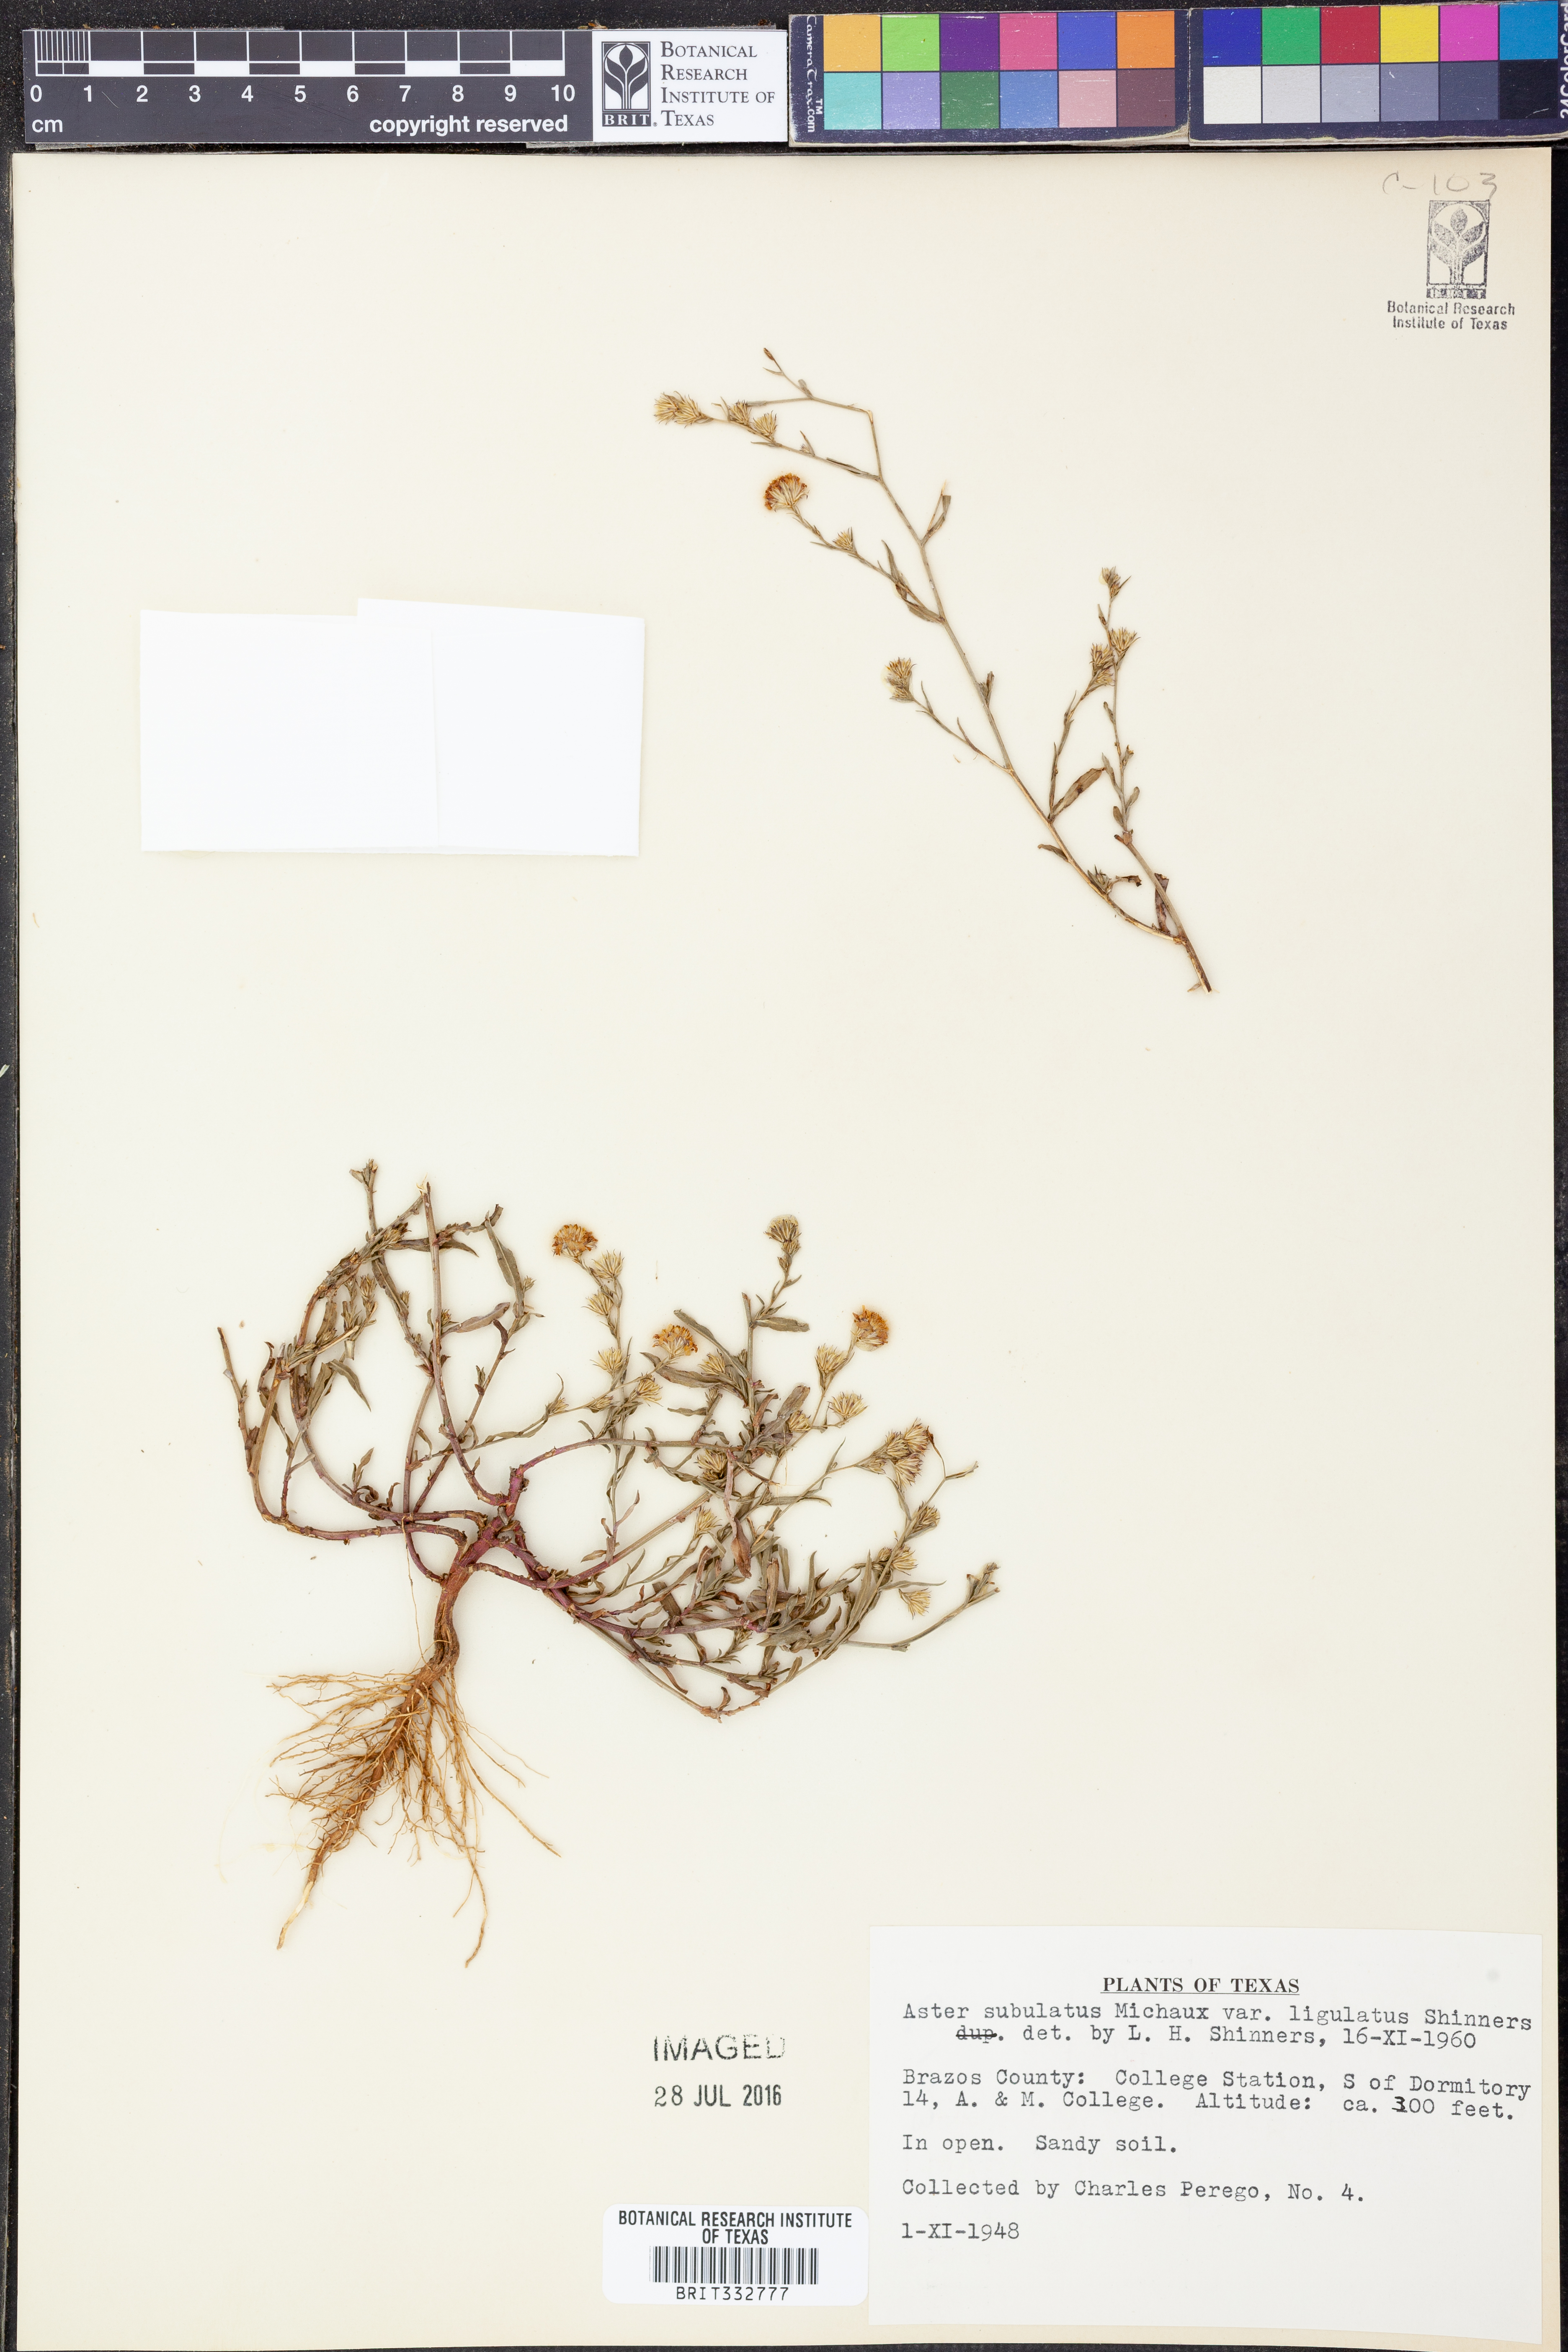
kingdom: Plantae
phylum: Tracheophyta
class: Magnoliopsida
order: Asterales
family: Asteraceae
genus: Symphyotrichum
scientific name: Symphyotrichum divaricatum
